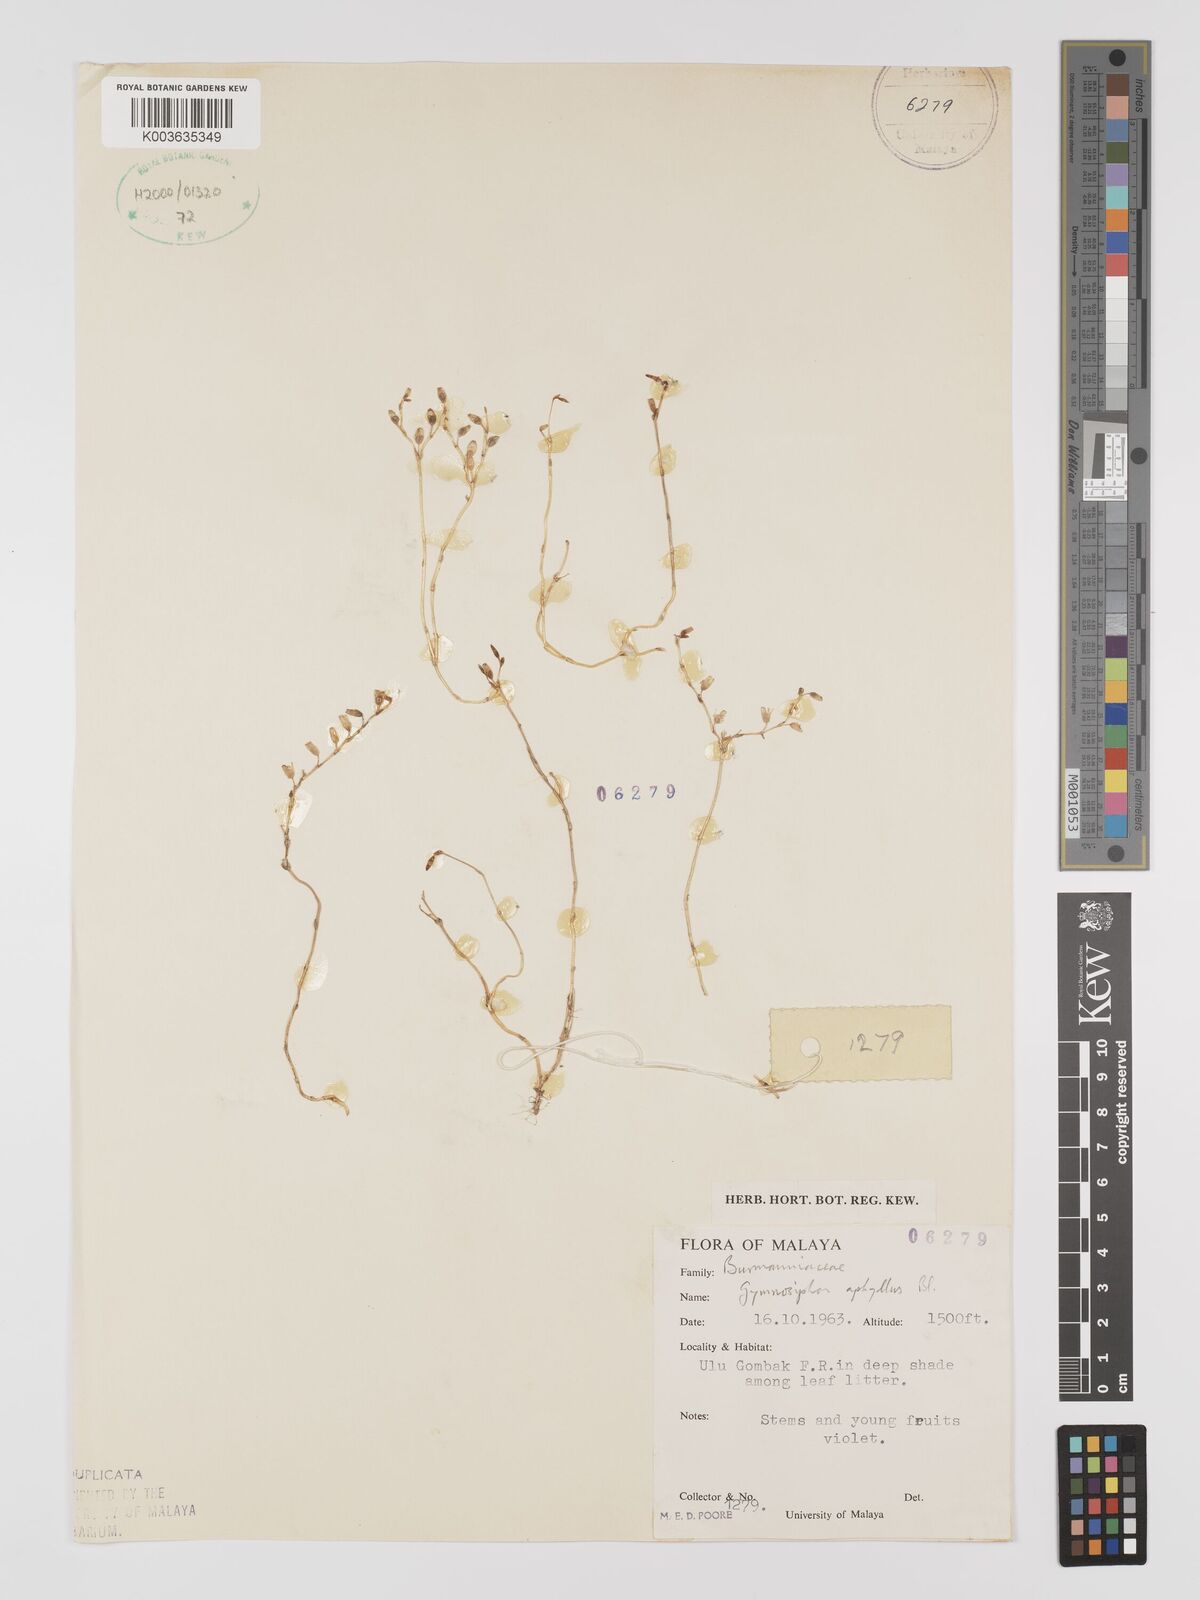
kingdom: Plantae
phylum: Tracheophyta
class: Liliopsida
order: Dioscoreales
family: Burmanniaceae
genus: Gymnosiphon
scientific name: Gymnosiphon aphyllus
